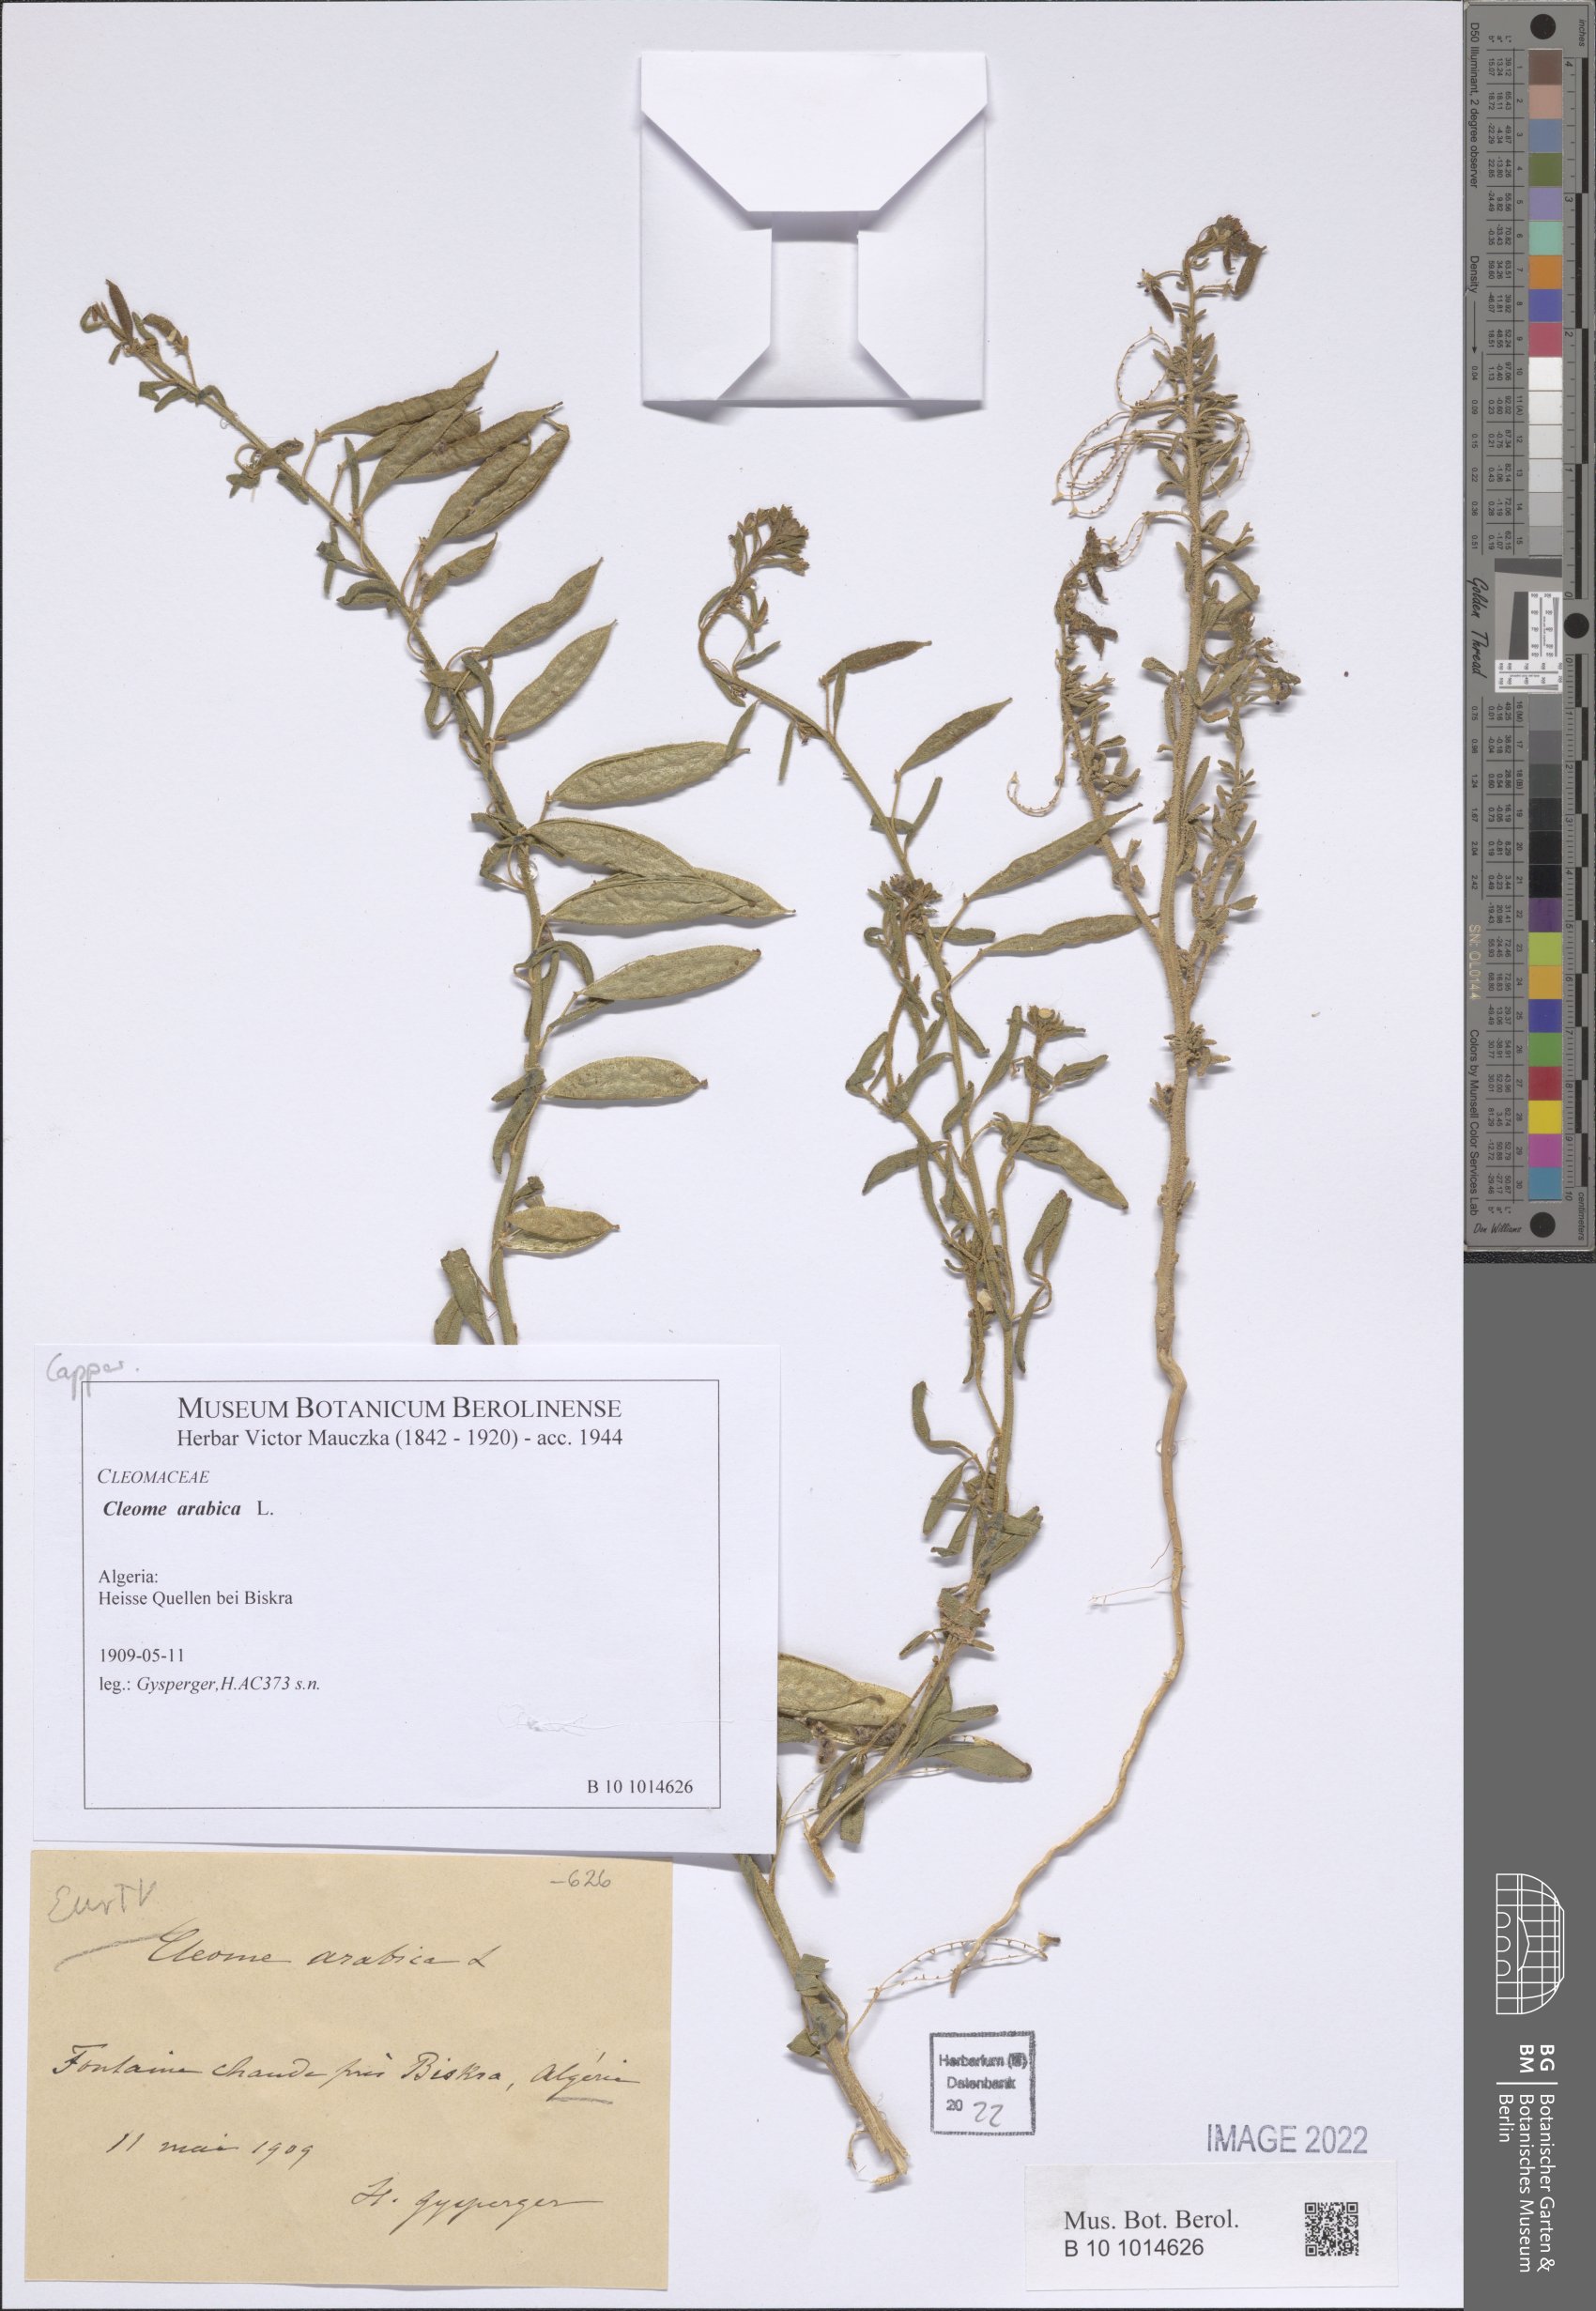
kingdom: Plantae
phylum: Tracheophyta
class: Magnoliopsida
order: Brassicales
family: Cleomaceae
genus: Cleome
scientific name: Cleome arabica
